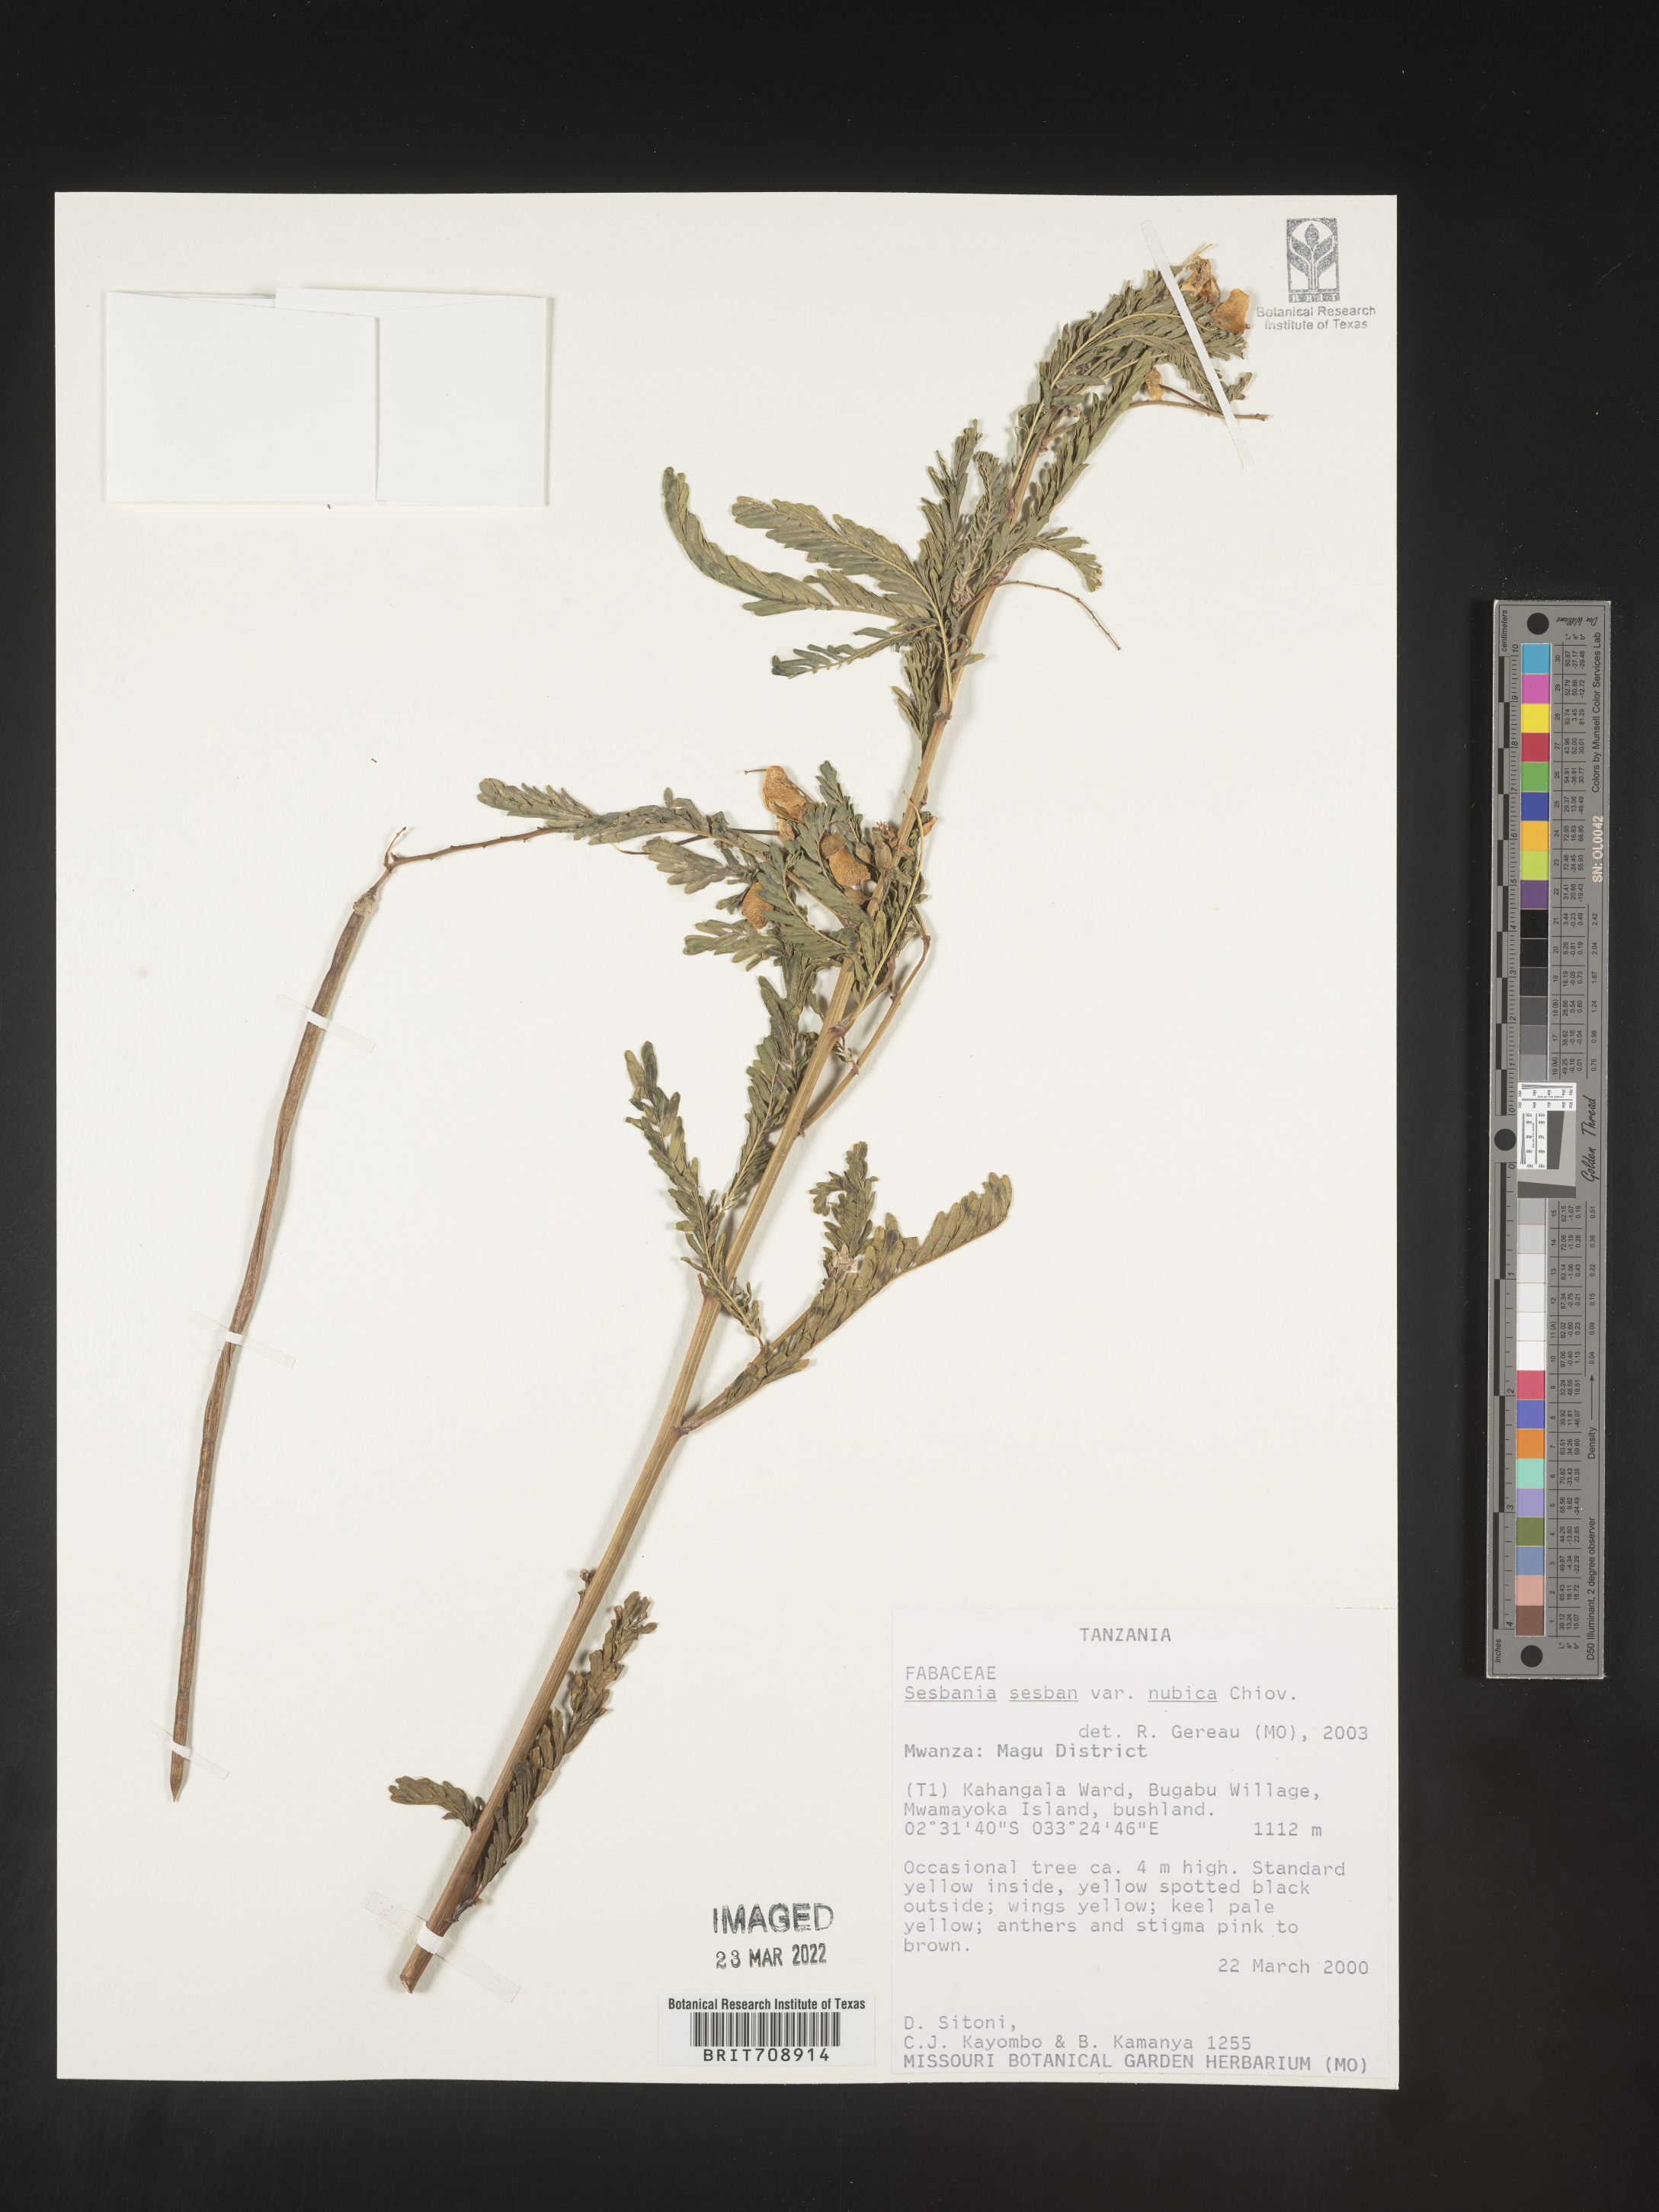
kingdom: Plantae
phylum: Tracheophyta
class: Magnoliopsida
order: Fabales
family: Fabaceae
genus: Sesbania
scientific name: Sesbania
